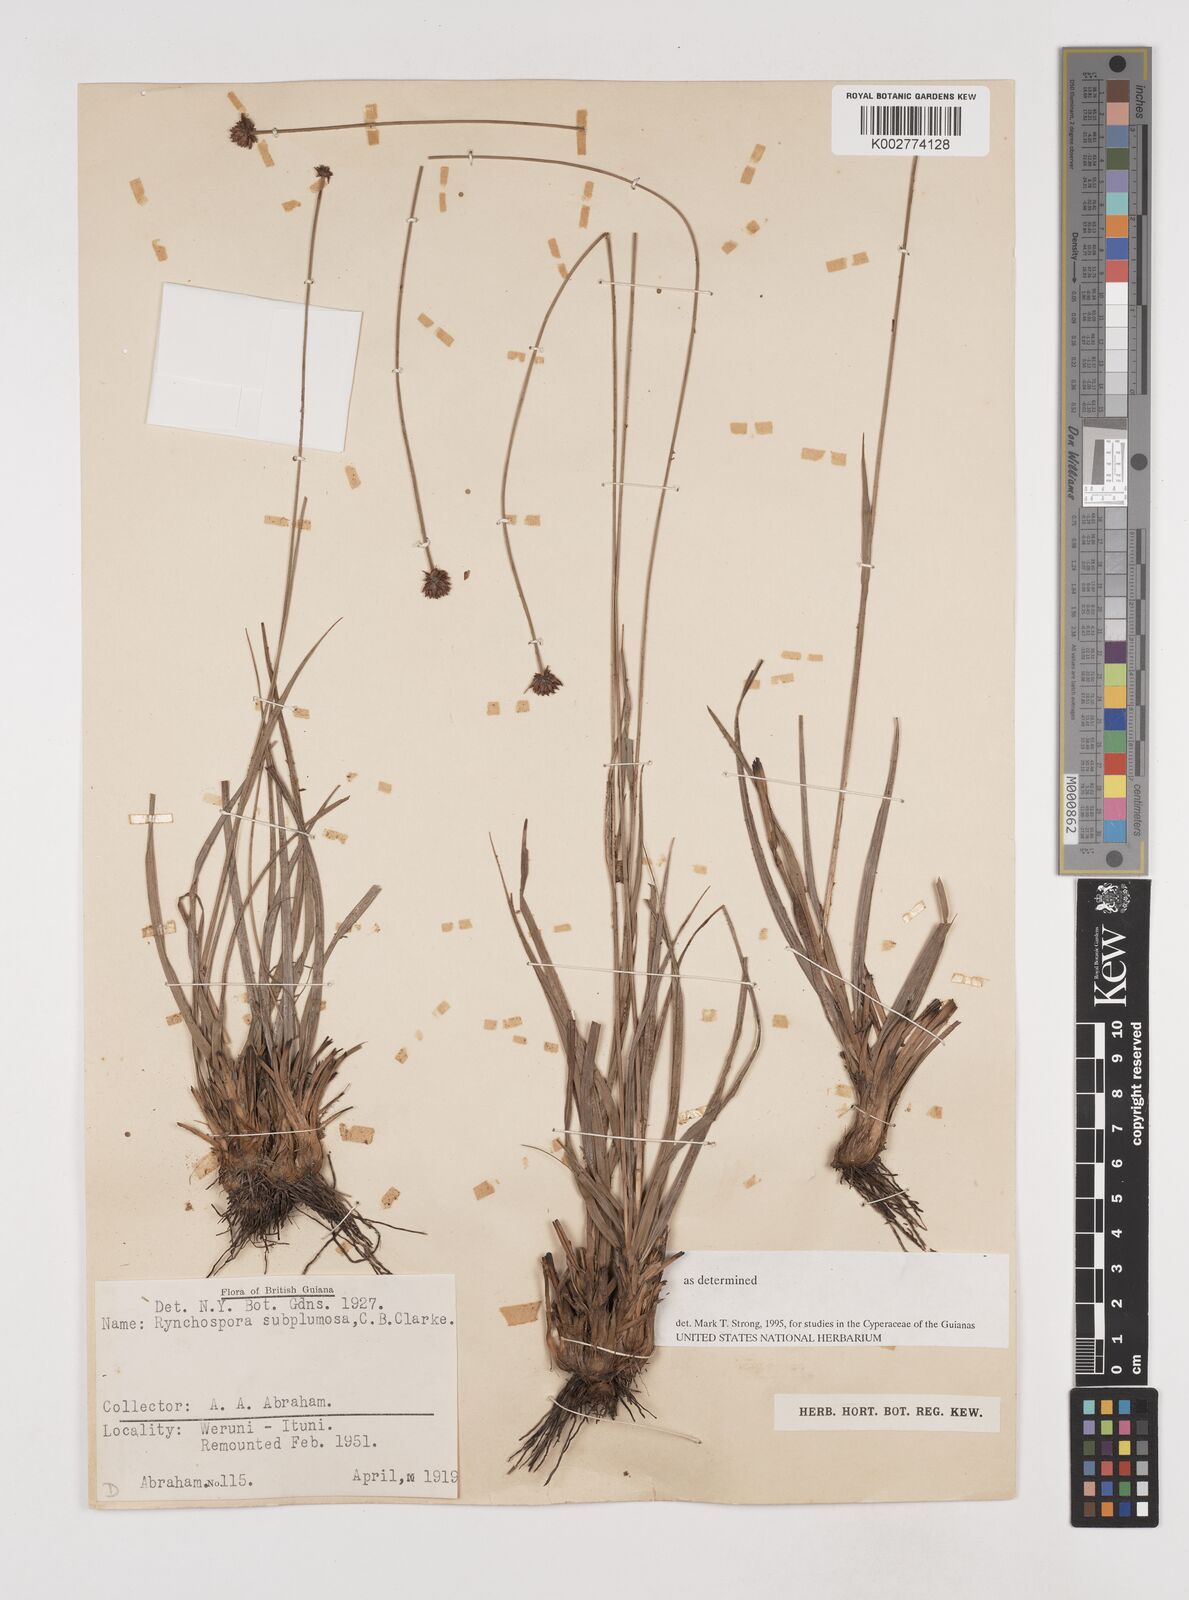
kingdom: Plantae
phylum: Tracheophyta
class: Liliopsida
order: Poales
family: Cyperaceae
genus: Rhynchospora
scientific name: Rhynchospora subplumosa
